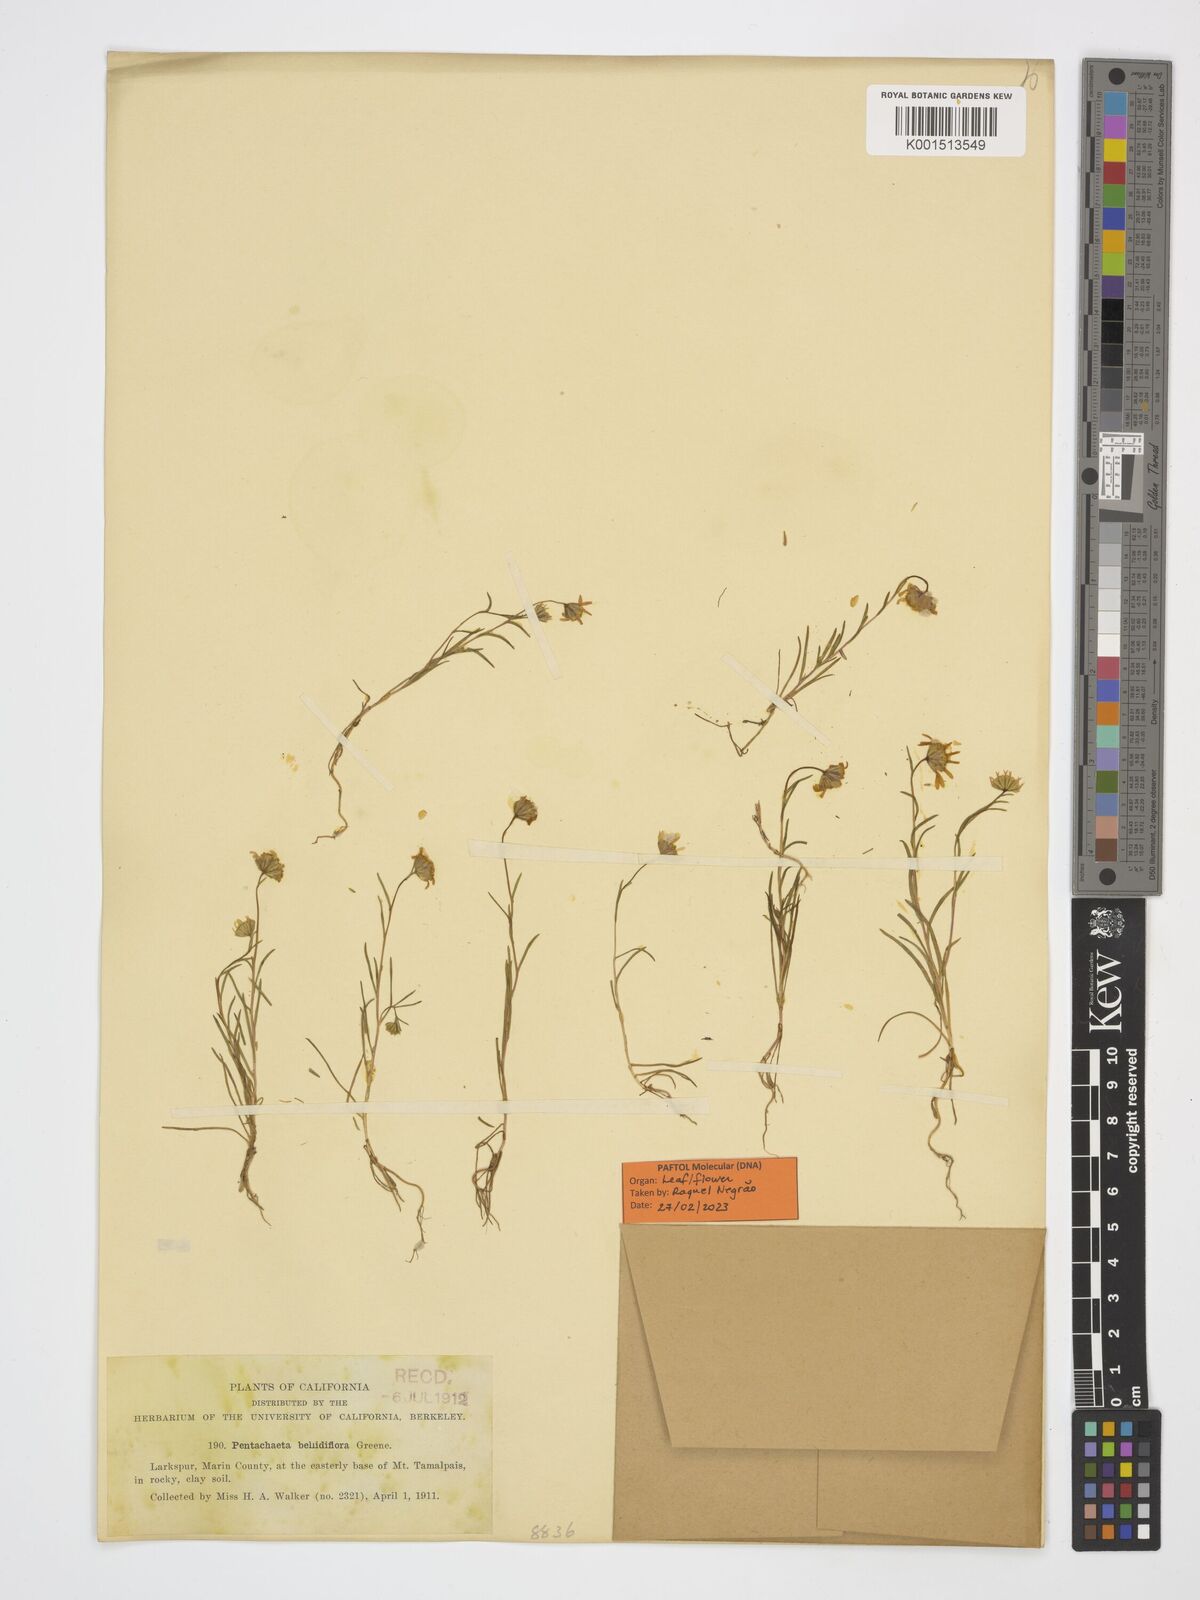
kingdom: Plantae
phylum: Tracheophyta
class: Magnoliopsida
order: Asterales
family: Asteraceae
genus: Pentachaeta
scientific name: Pentachaeta bellidiflora
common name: White-ray pentachaeta
